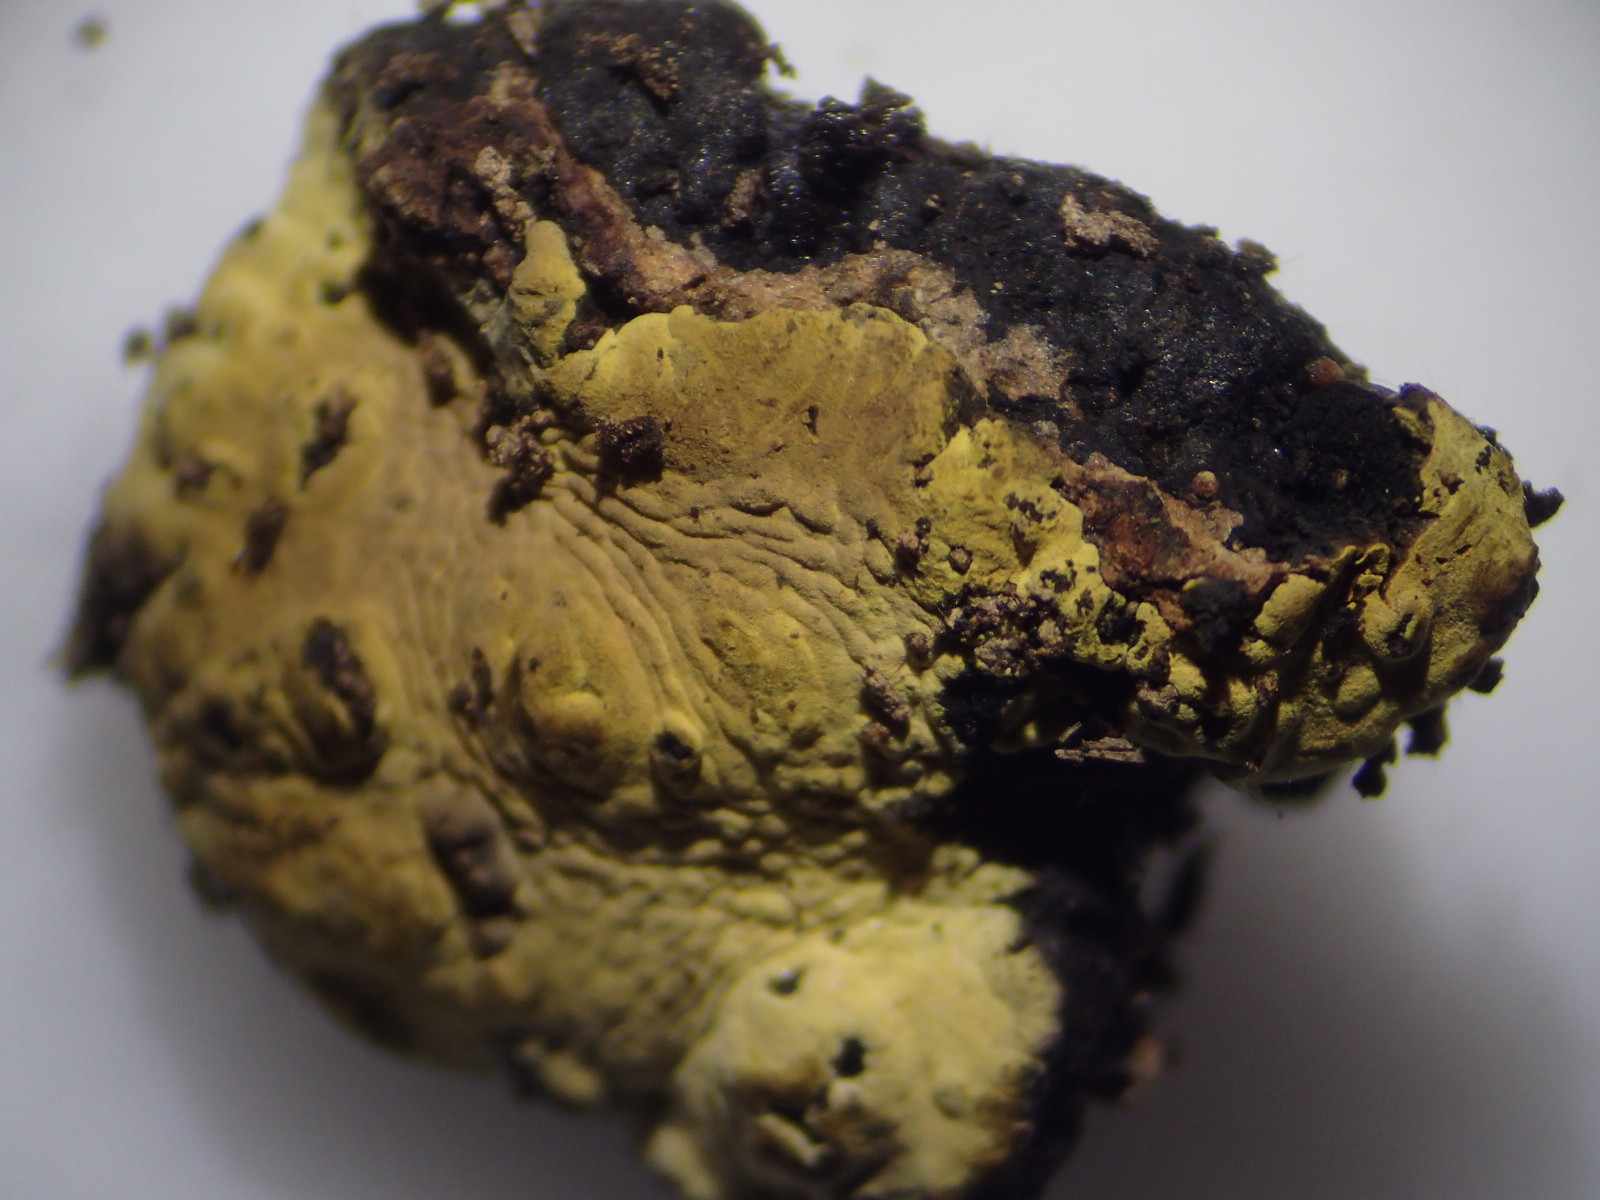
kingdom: Fungi
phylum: Ascomycota
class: Sordariomycetes
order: Xylariales
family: Hypoxylaceae
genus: Jackrogersella
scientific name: Jackrogersella multiformis
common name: foranderlig kulbær
